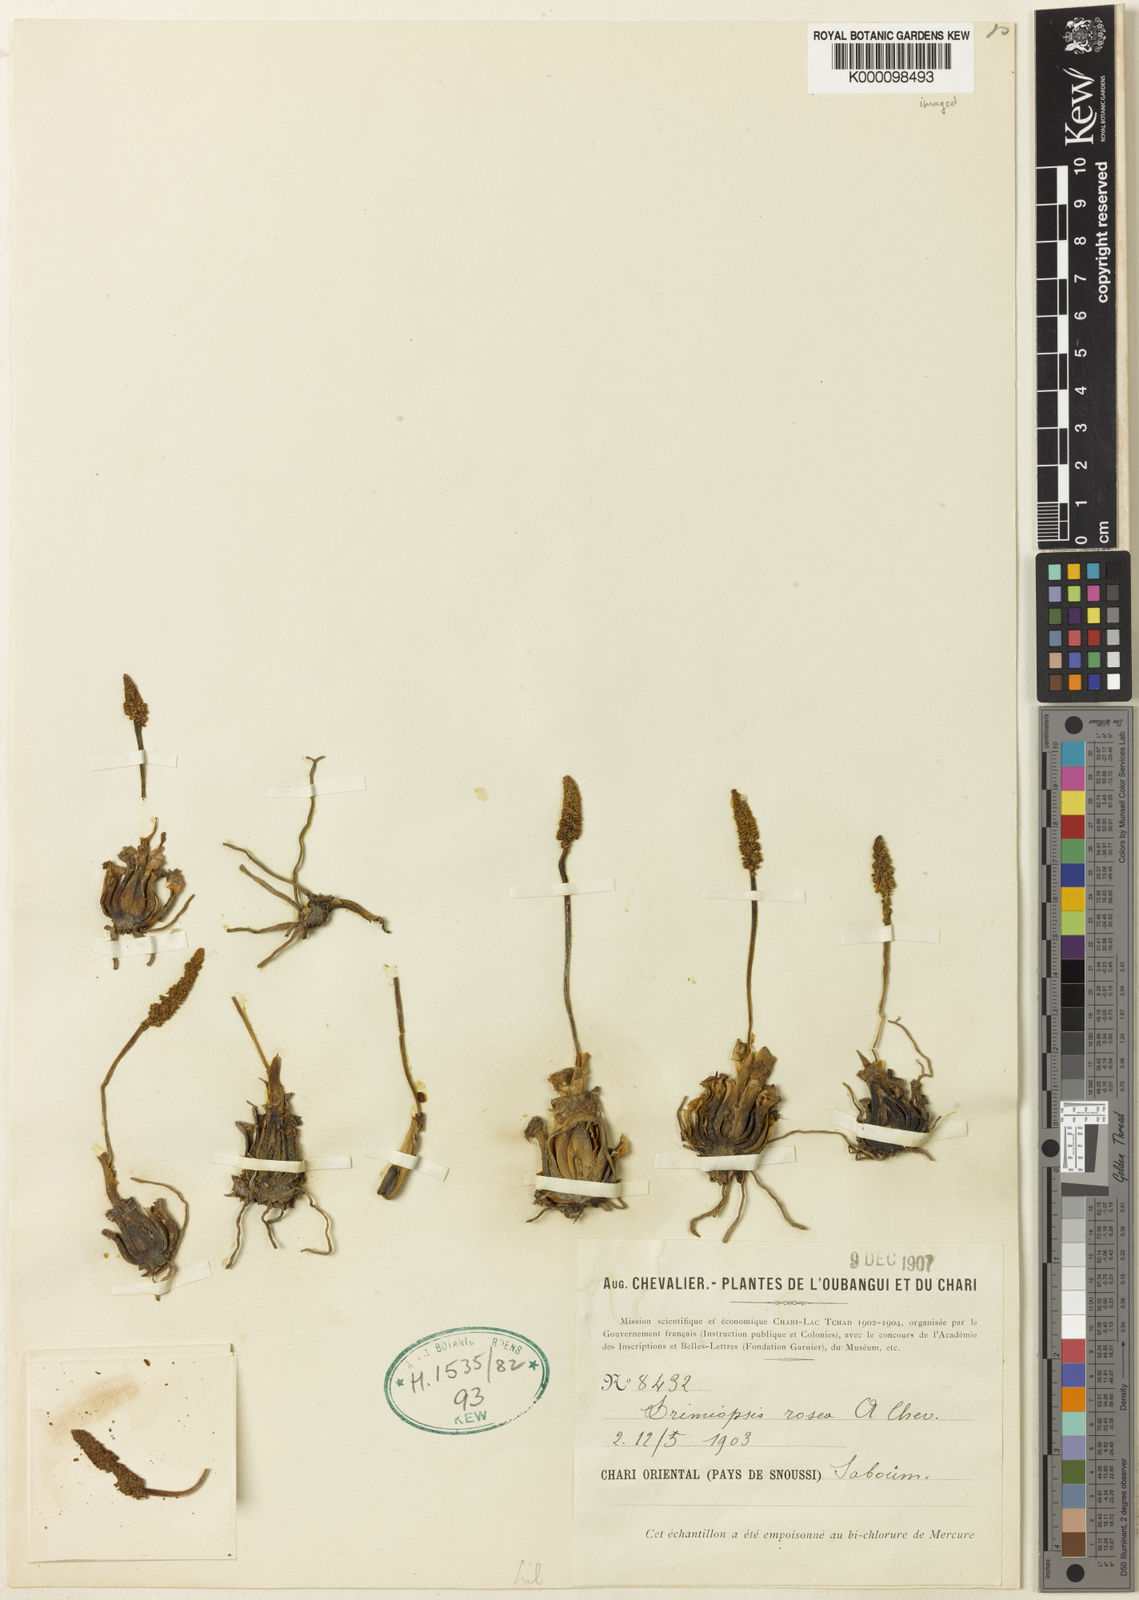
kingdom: Plantae
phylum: Tracheophyta
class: Liliopsida
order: Asparagales
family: Asparagaceae
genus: Drimiopsis
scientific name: Drimiopsis rosea
